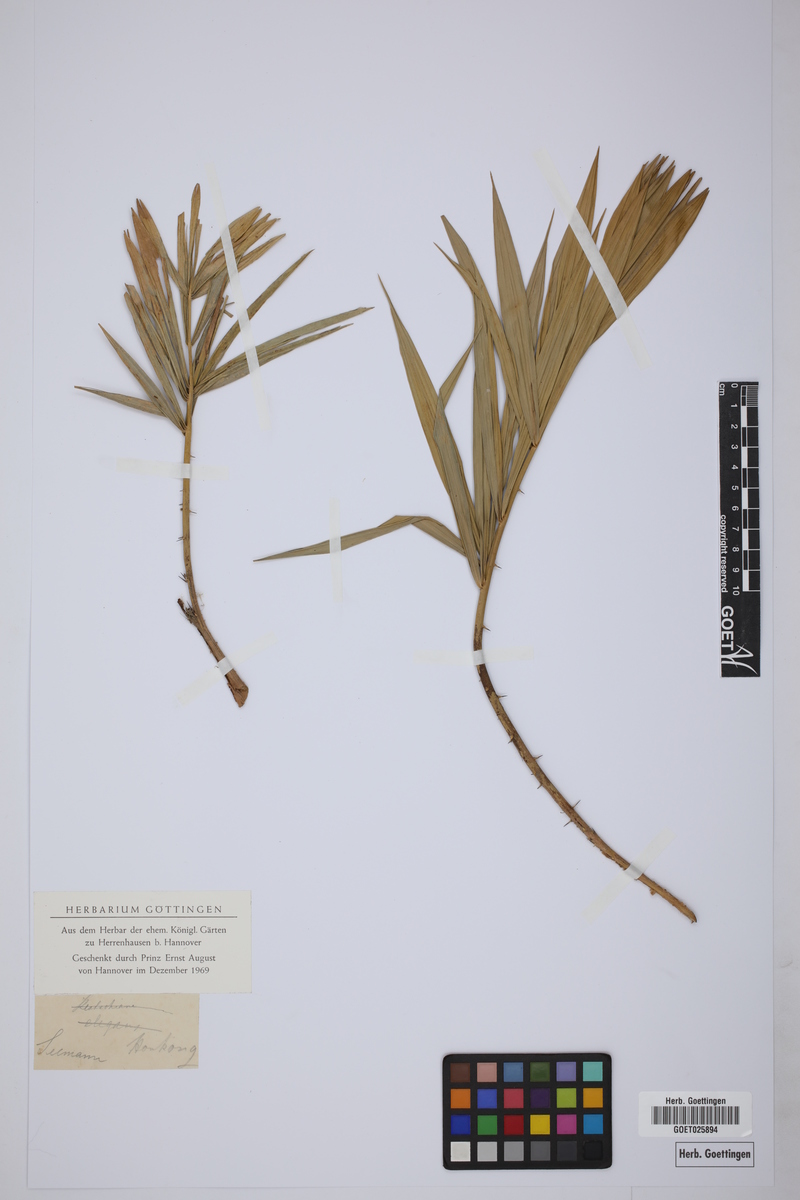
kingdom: Plantae
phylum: Tracheophyta
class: Liliopsida
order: Arecales
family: Arecaceae
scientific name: Arecaceae
